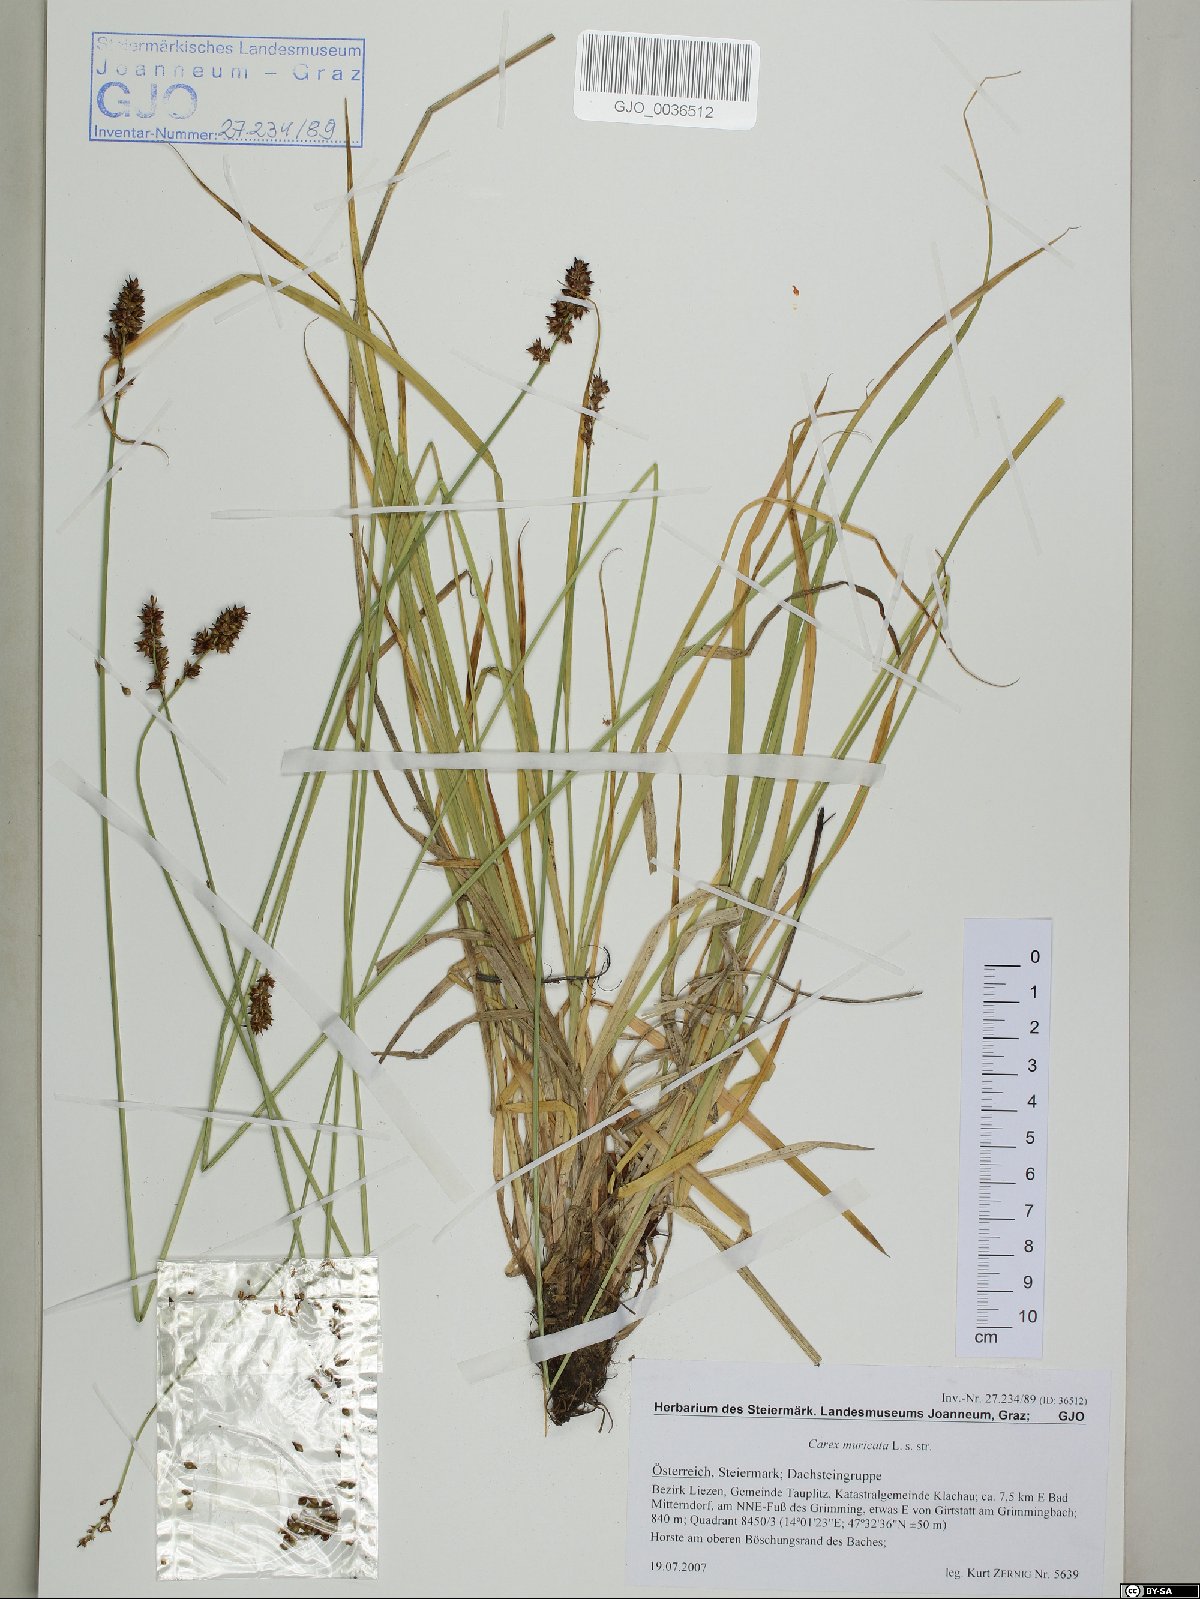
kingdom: Plantae
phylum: Tracheophyta
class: Liliopsida
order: Poales
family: Cyperaceae
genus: Carex
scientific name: Carex muricata
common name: Rough sedge
